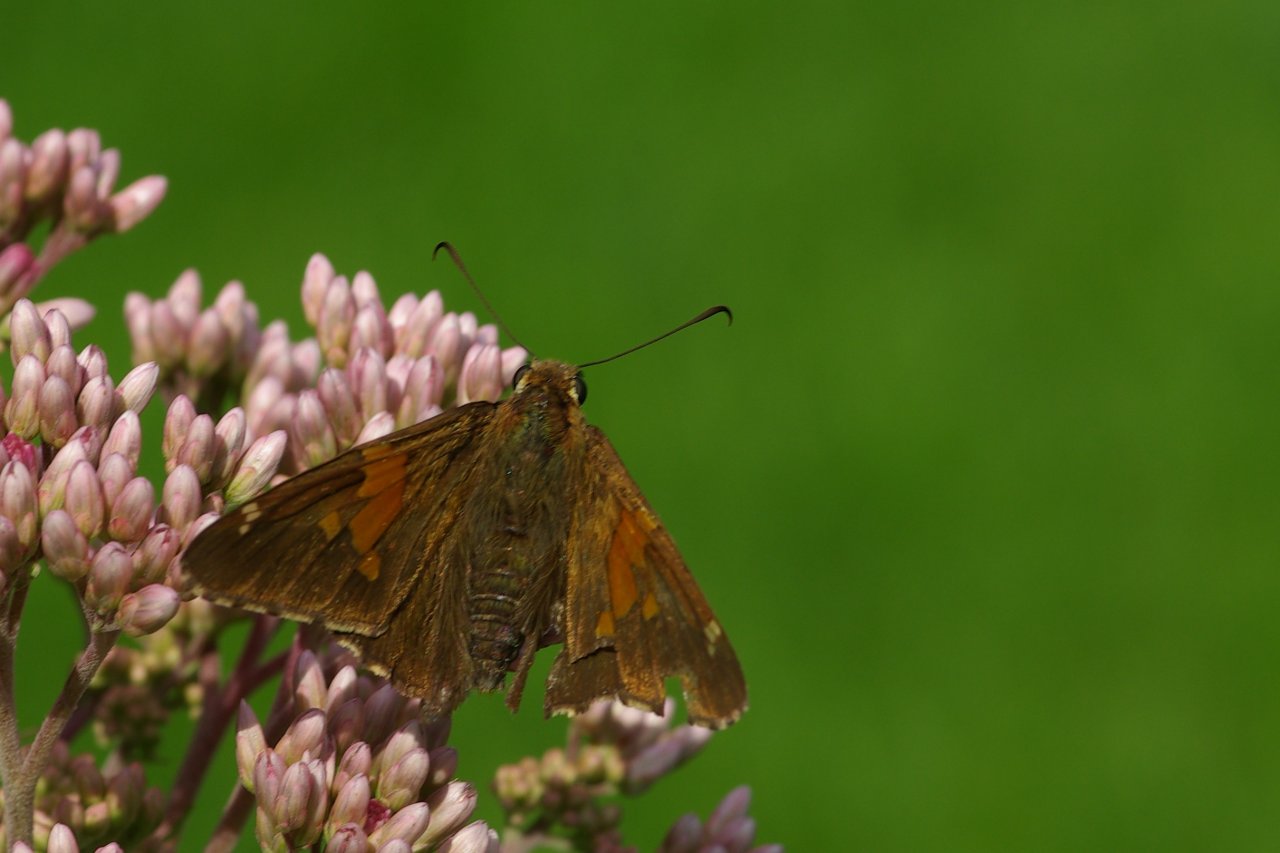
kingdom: Animalia
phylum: Arthropoda
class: Insecta
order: Lepidoptera
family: Hesperiidae
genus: Epargyreus
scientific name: Epargyreus clarus
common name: Silver-spotted Skipper
